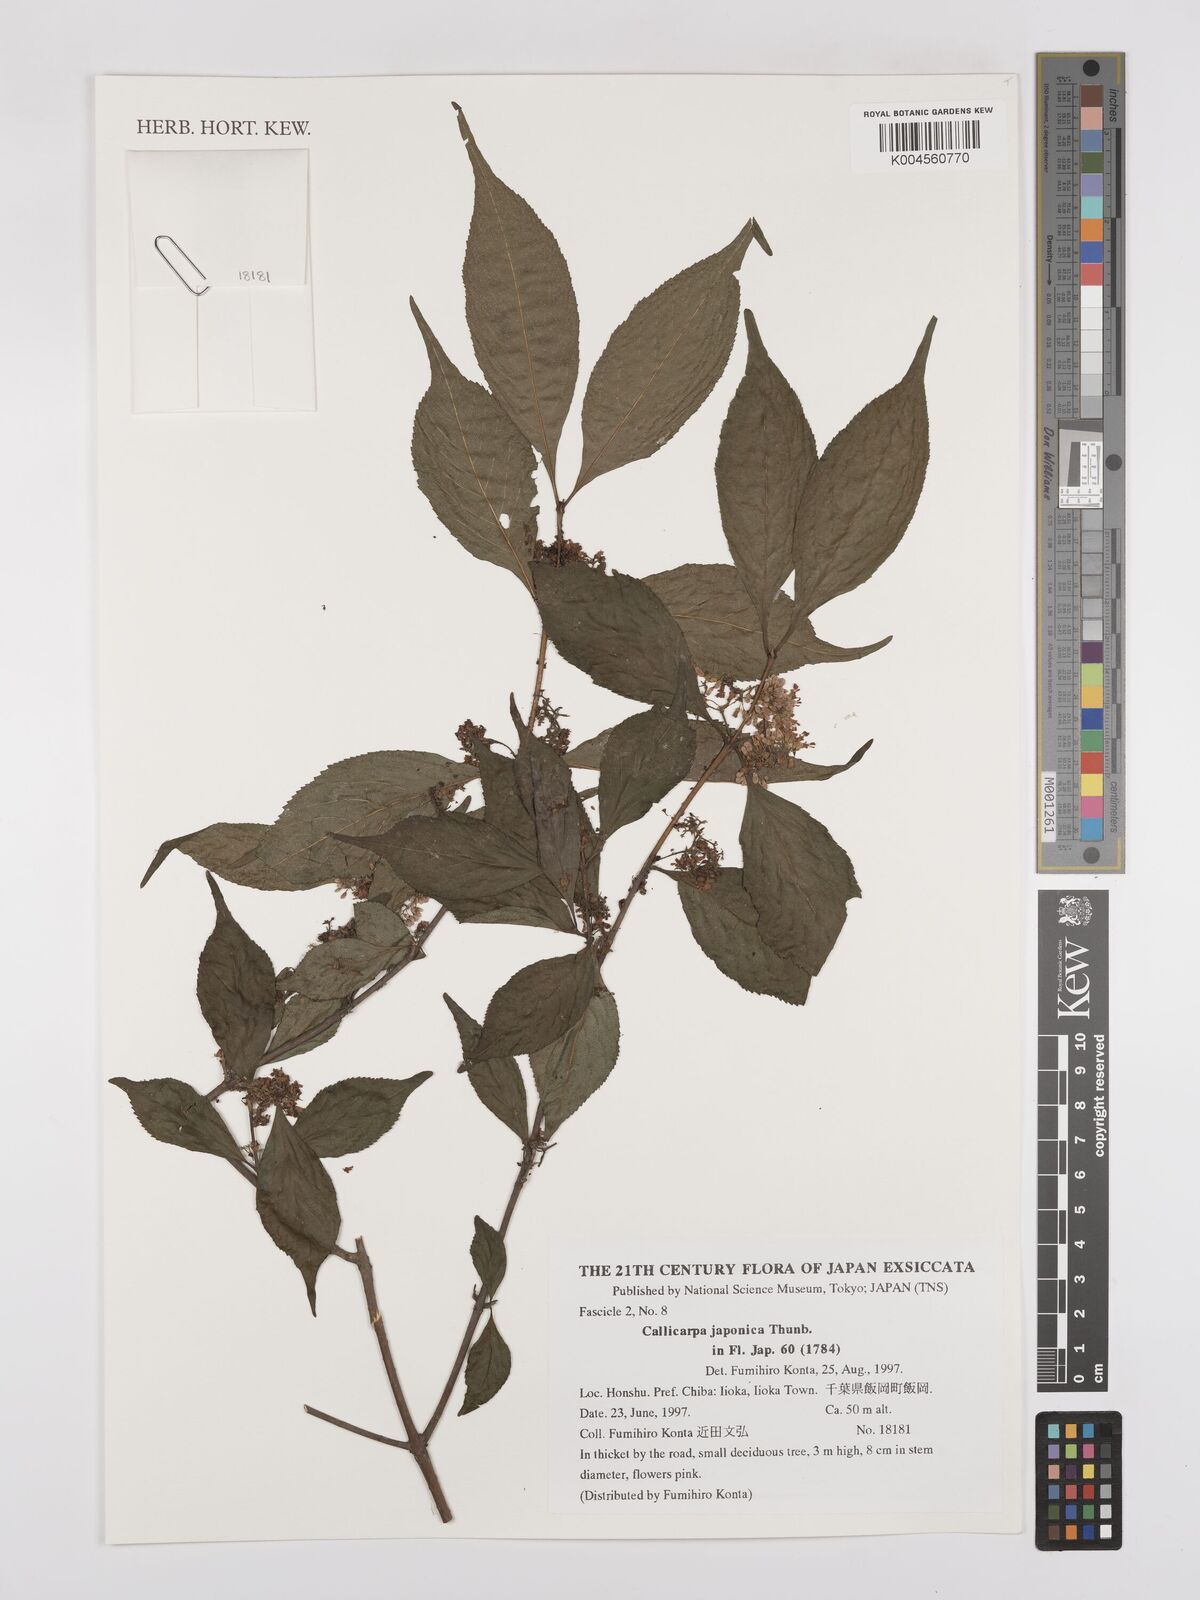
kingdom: Plantae
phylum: Tracheophyta
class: Magnoliopsida
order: Lamiales
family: Lamiaceae
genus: Callicarpa
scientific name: Callicarpa japonica
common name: Japanese beauty-berry
